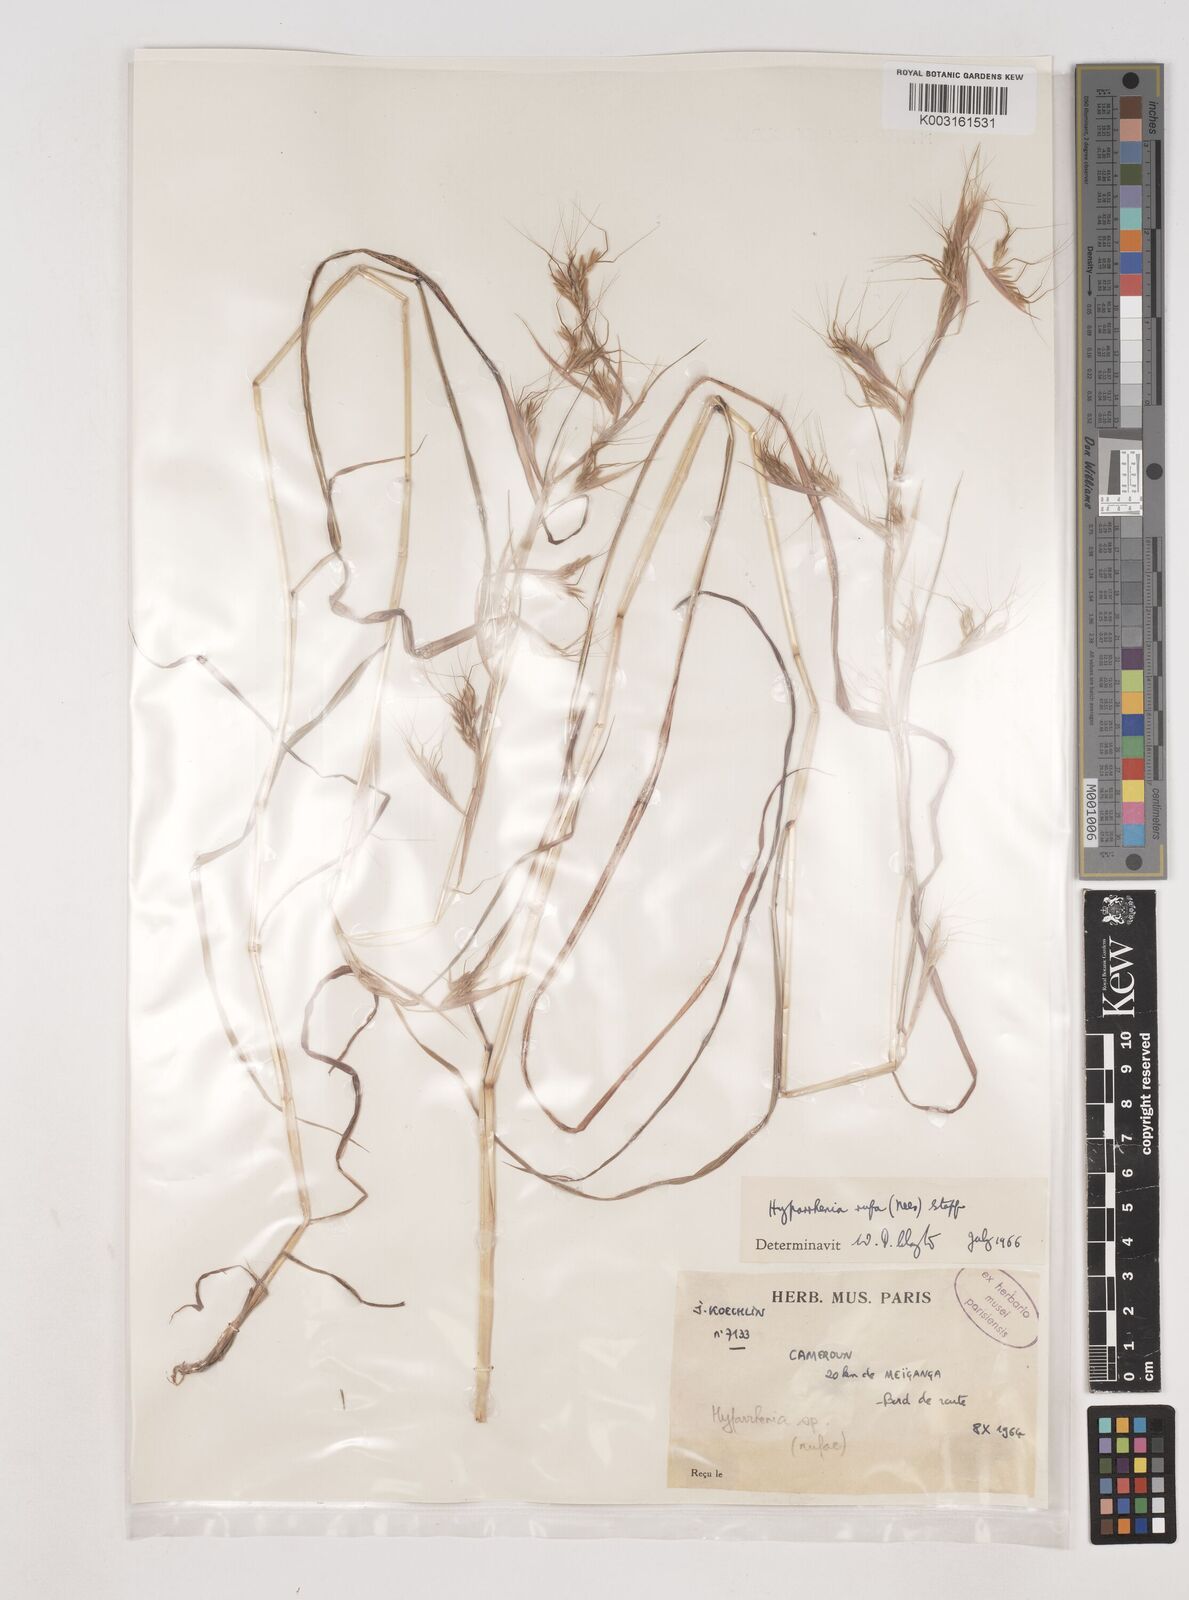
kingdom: Plantae
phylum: Tracheophyta
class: Liliopsida
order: Poales
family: Poaceae
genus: Hyparrhenia
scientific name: Hyparrhenia rufa
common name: Jaraguagrass
